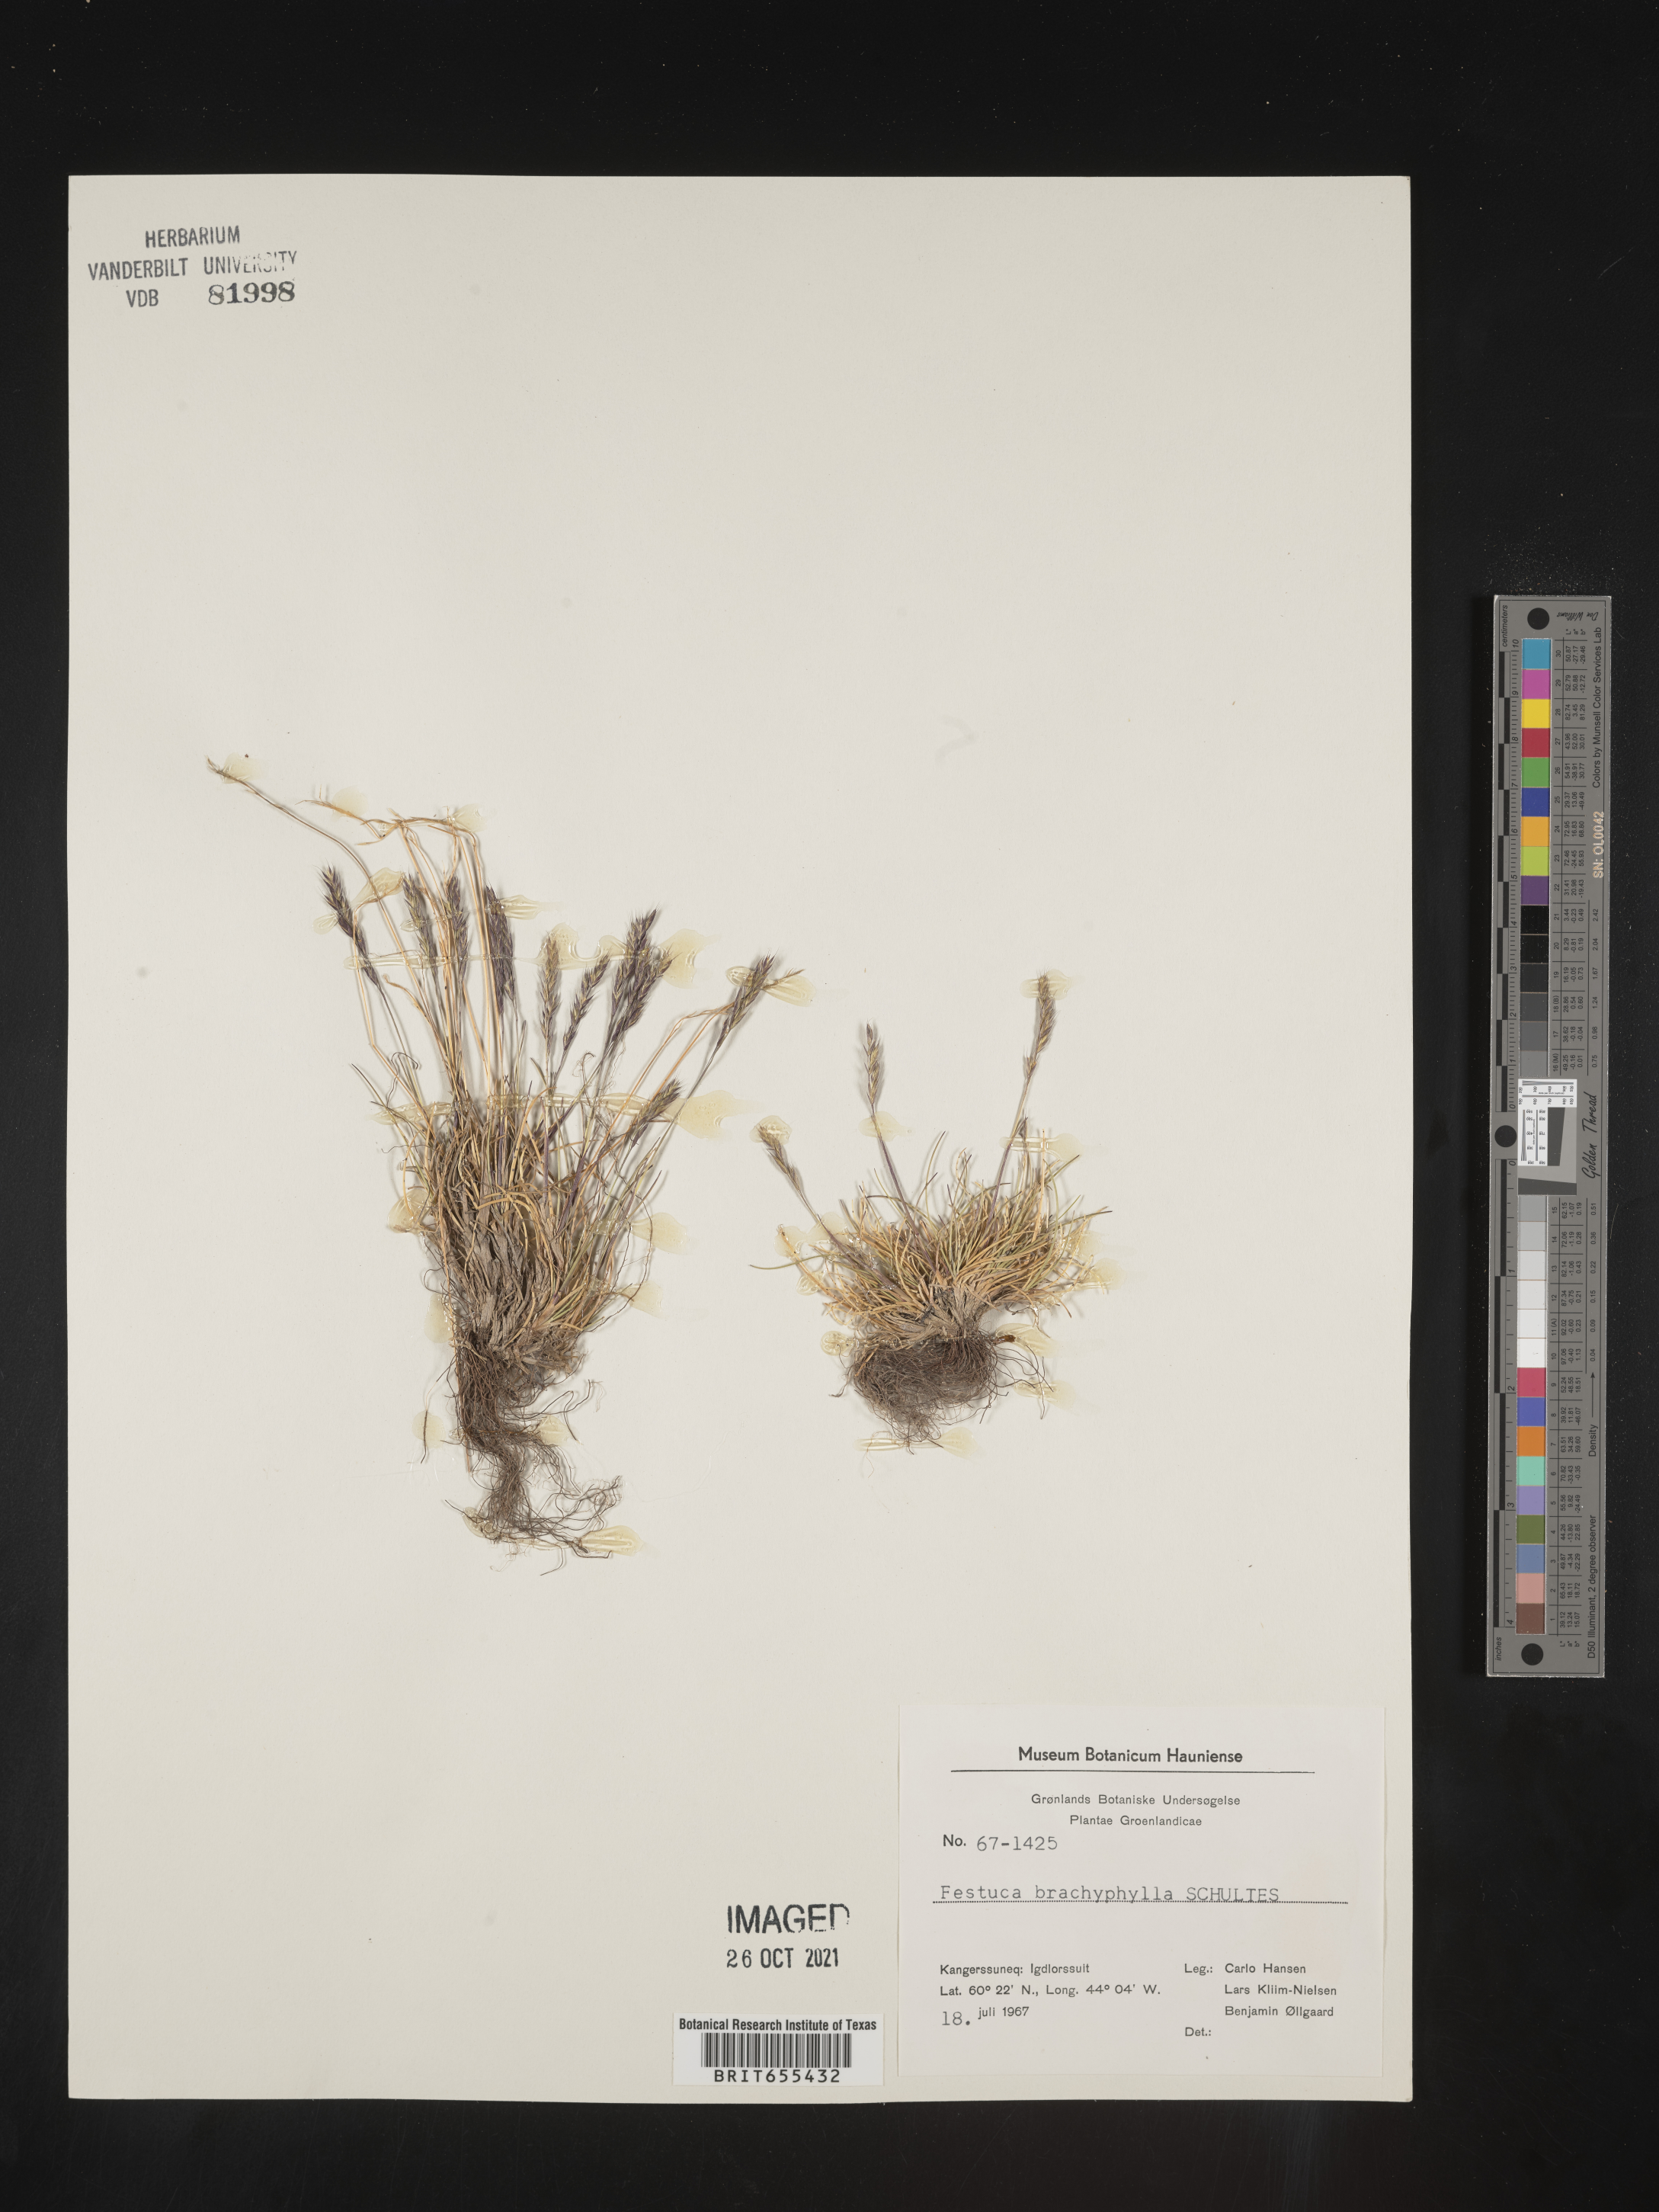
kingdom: Plantae
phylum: Tracheophyta
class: Liliopsida
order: Poales
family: Poaceae
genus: Festuca
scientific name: Festuca
